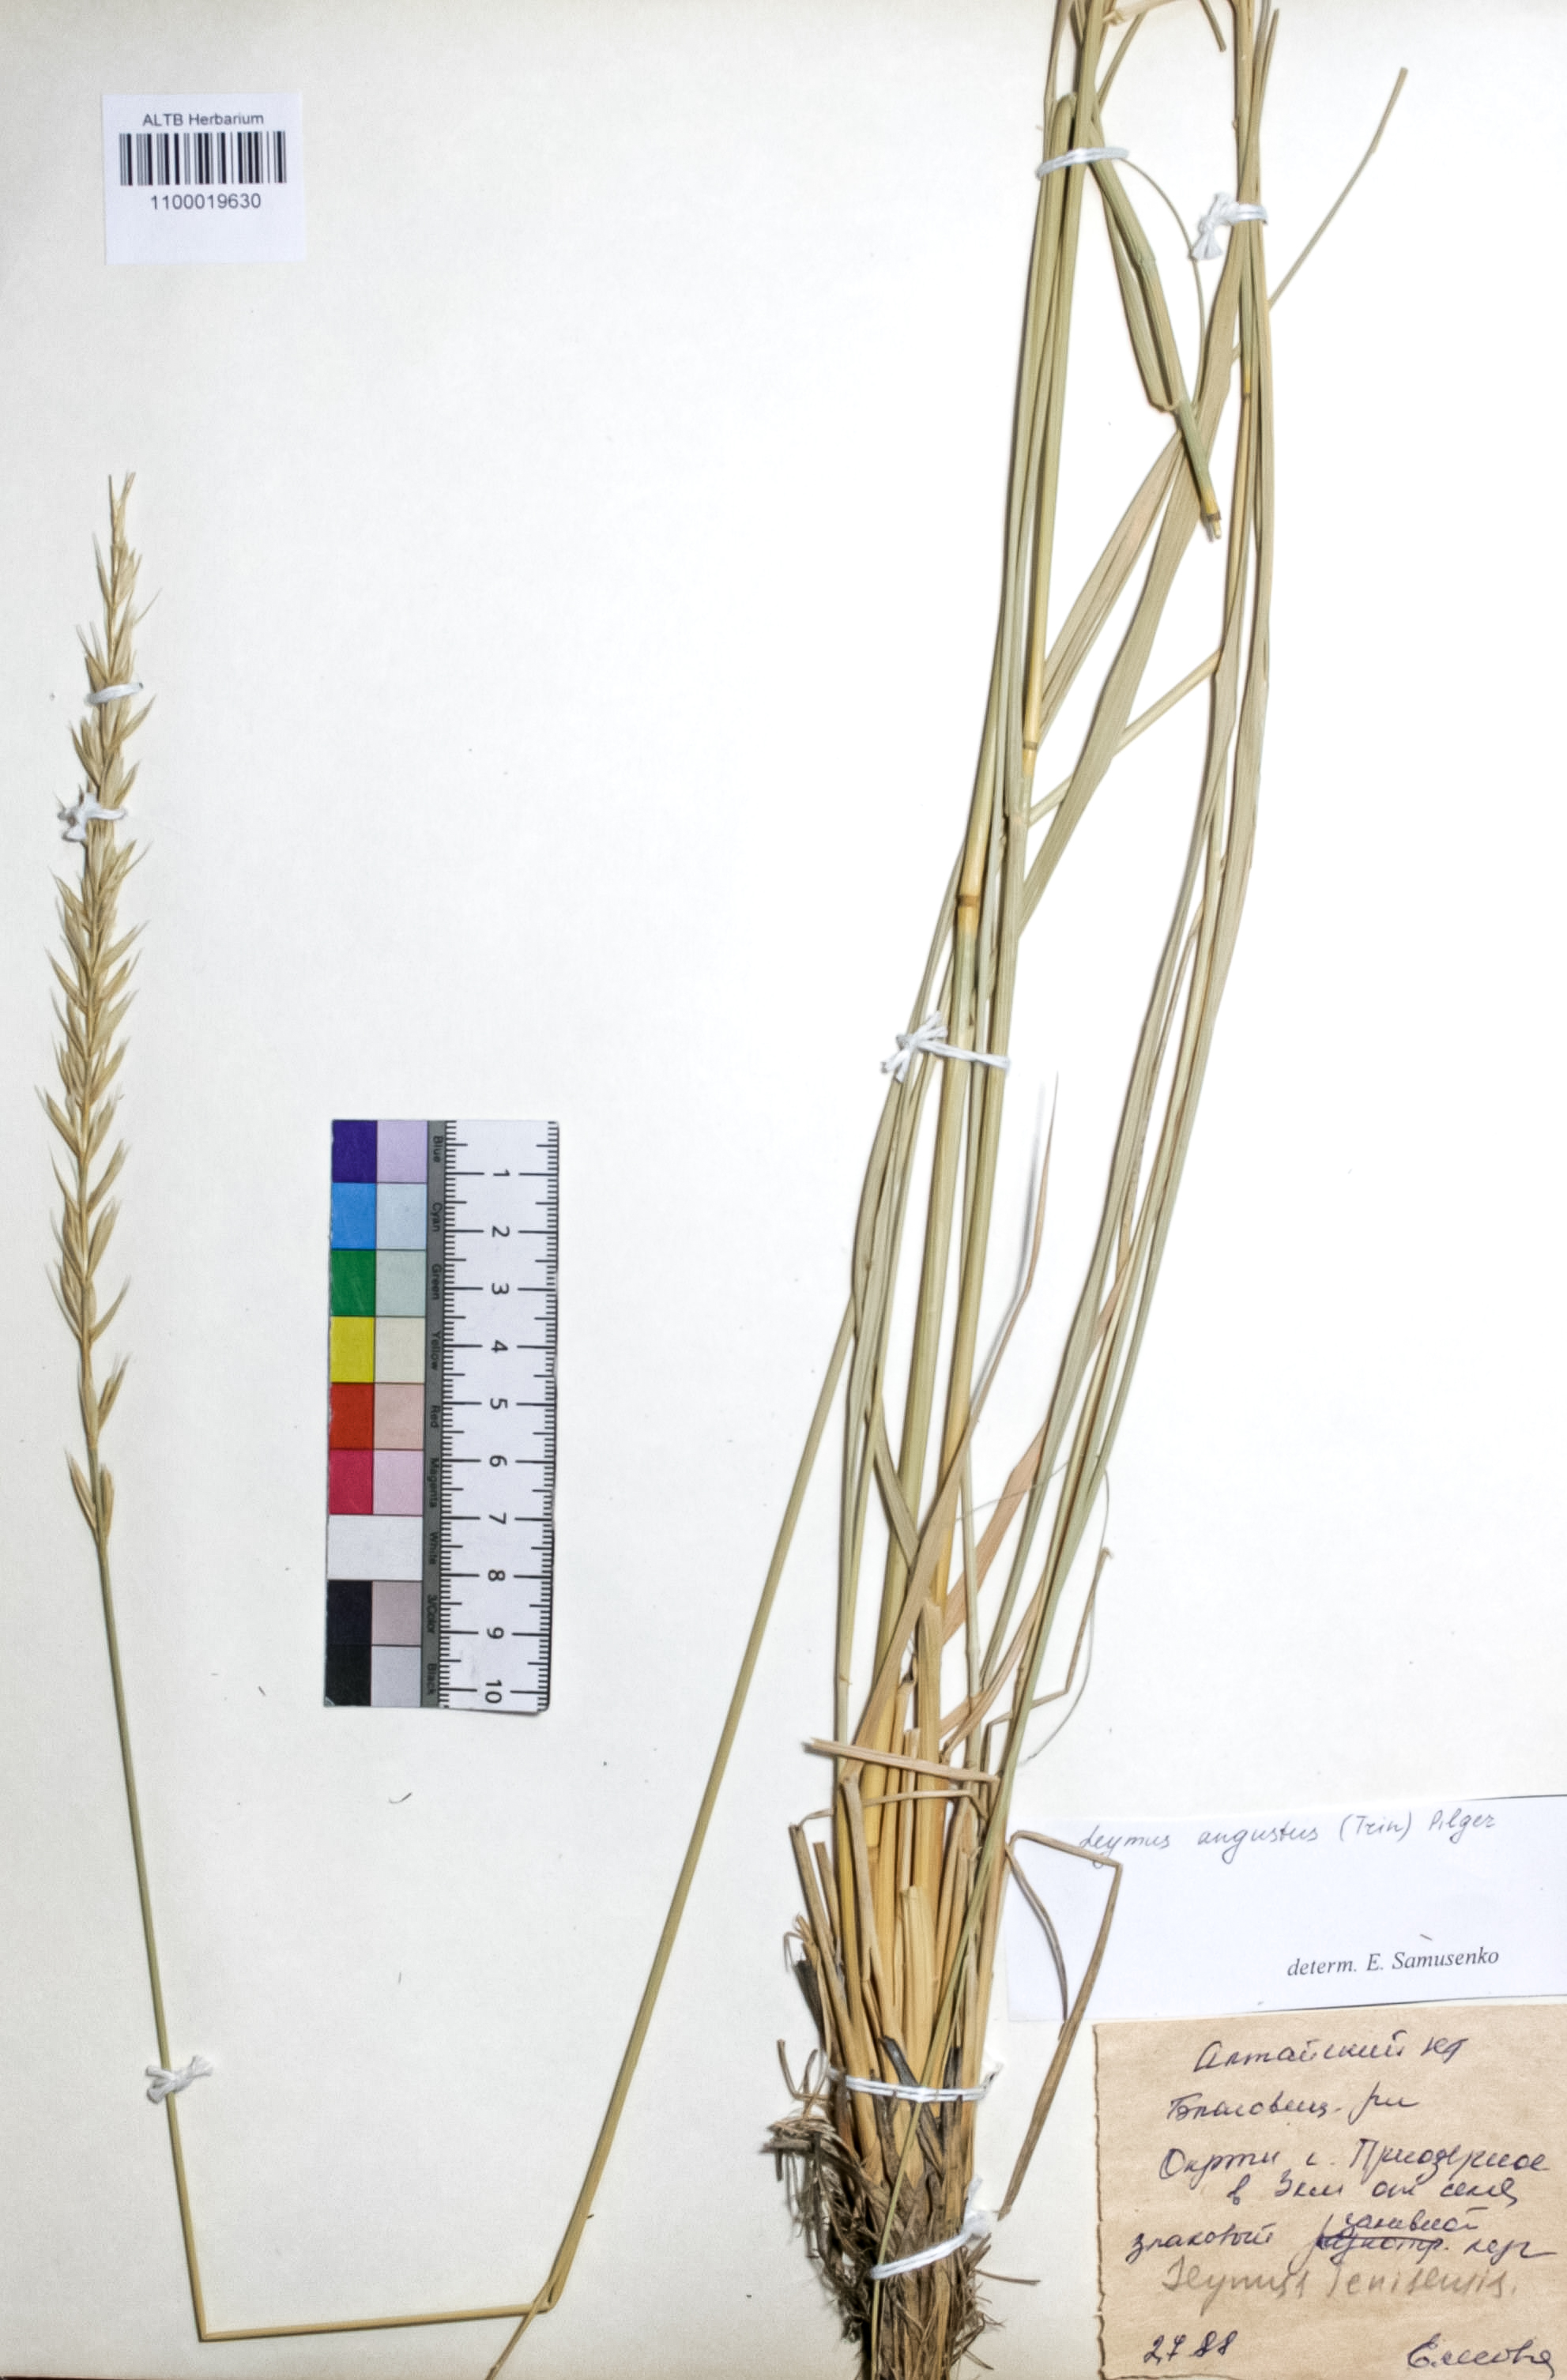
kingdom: Plantae
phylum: Tracheophyta
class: Liliopsida
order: Poales
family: Poaceae
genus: Leymus
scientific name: Leymus angustus
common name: Altai wildrye
